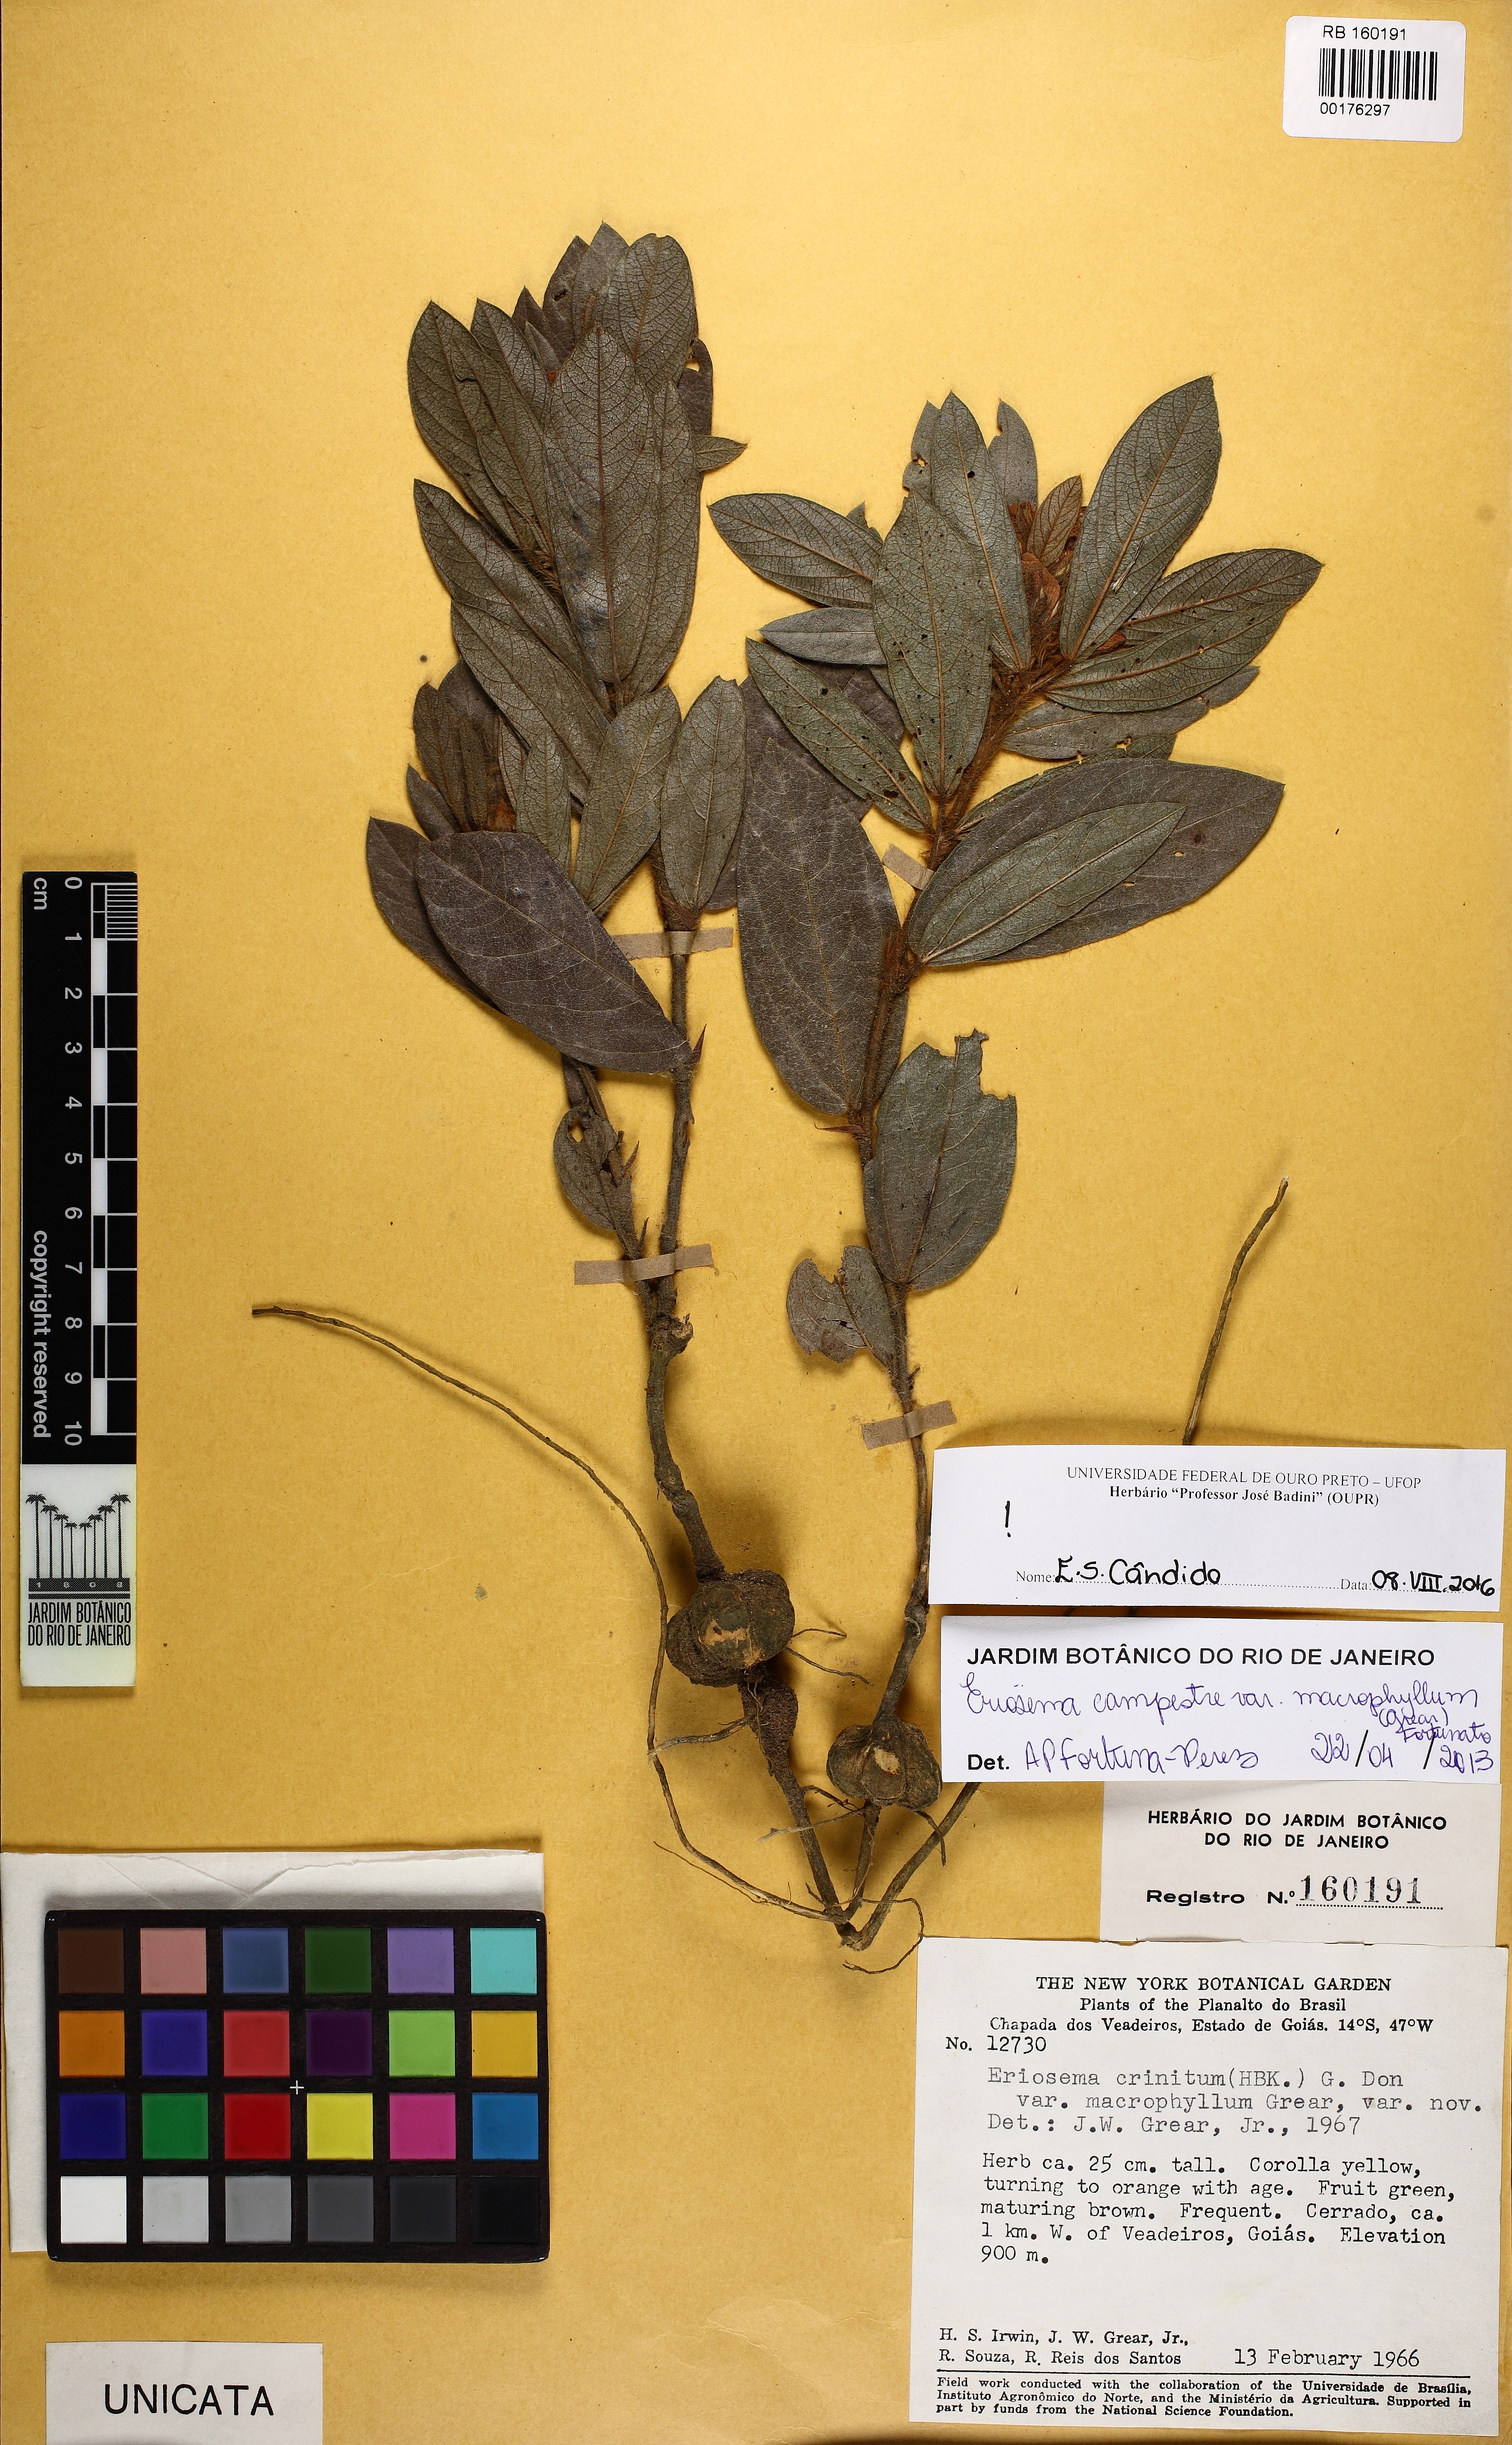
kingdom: Plantae
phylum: Tracheophyta
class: Magnoliopsida
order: Fabales
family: Fabaceae
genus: Eriosema
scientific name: Eriosema campestre
